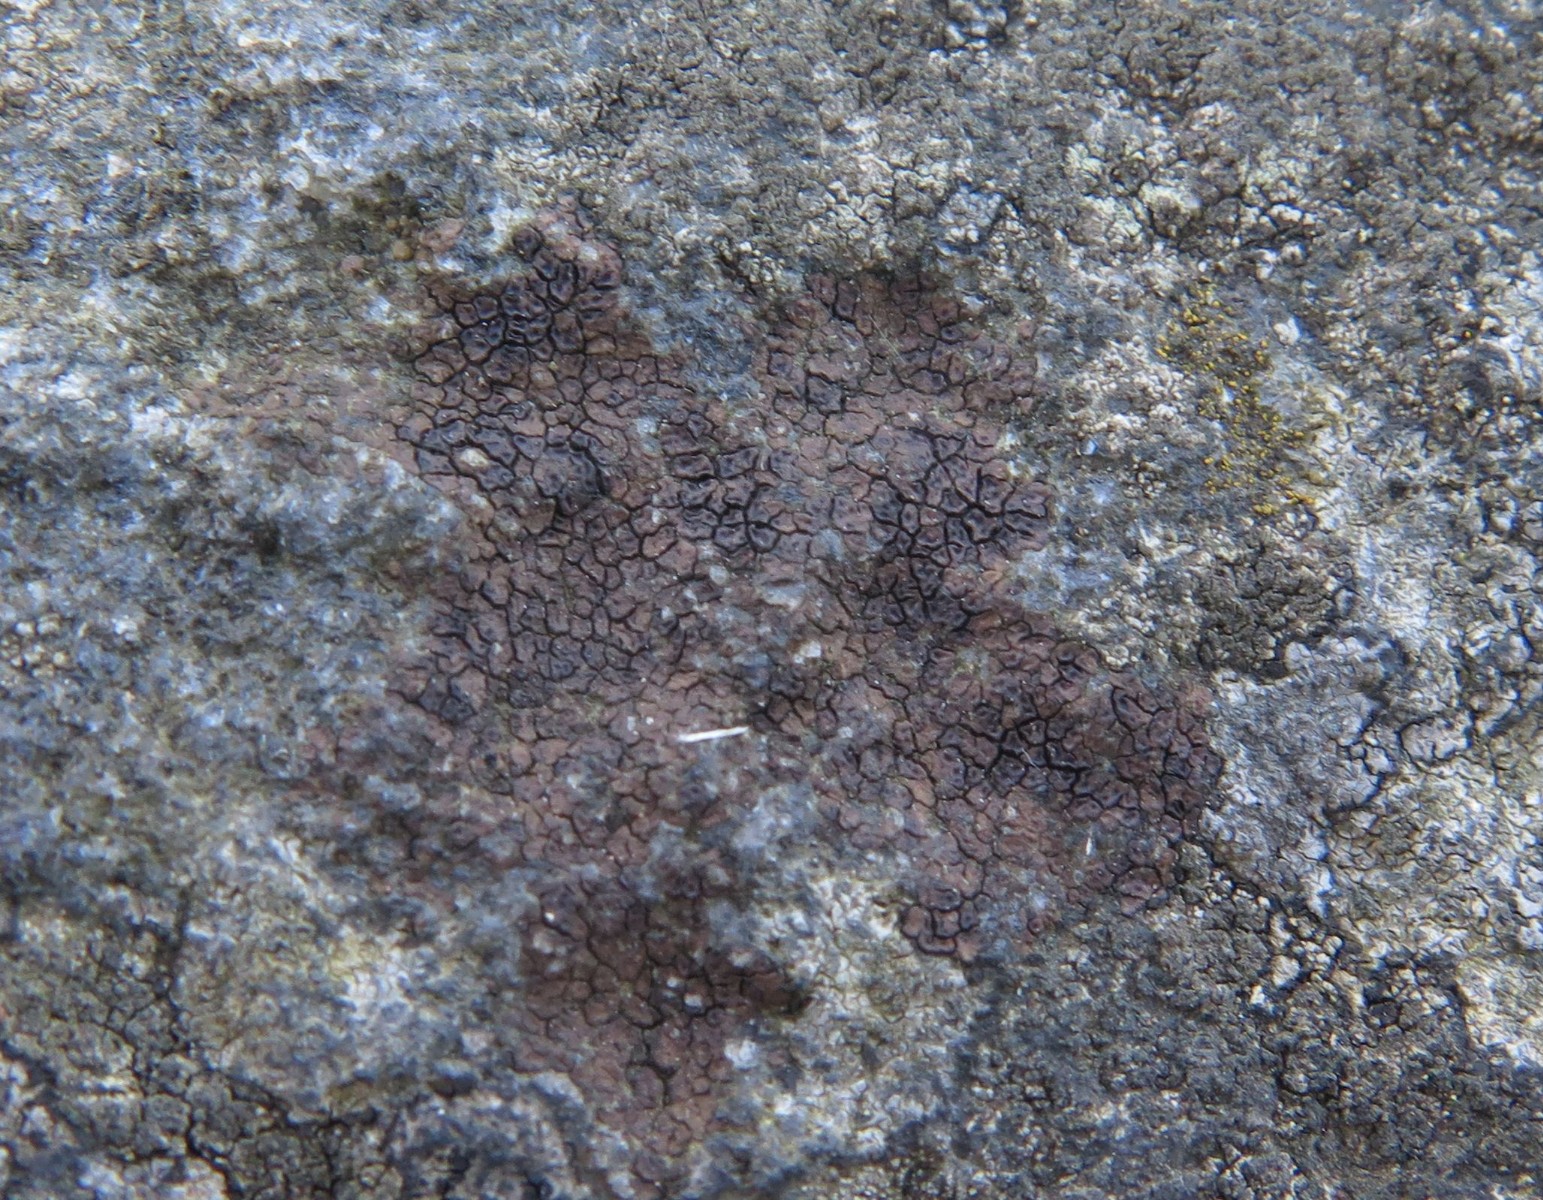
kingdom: Fungi
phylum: Ascomycota
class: Lecanoromycetes
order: Acarosporales
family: Acarosporaceae
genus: Acarospora
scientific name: Acarospora fuscata
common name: brun småsporelav
